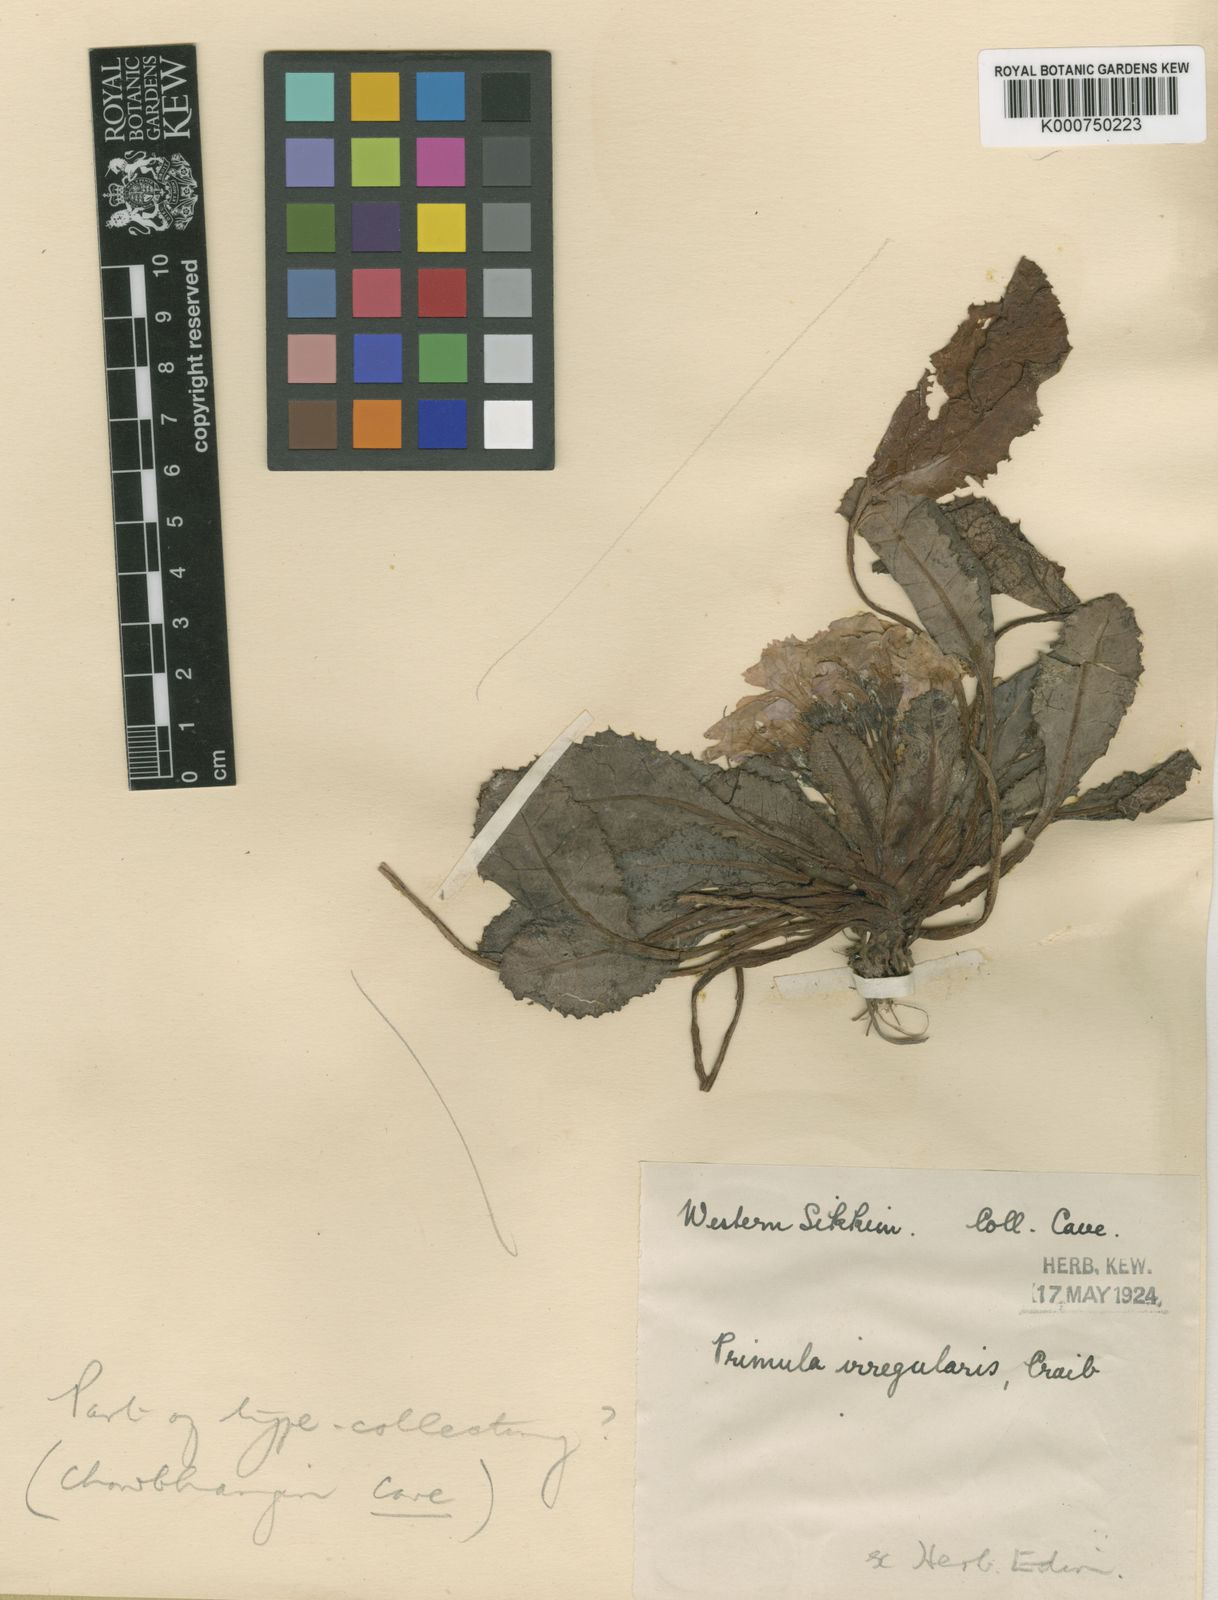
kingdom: Plantae
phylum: Tracheophyta
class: Magnoliopsida
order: Ericales
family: Primulaceae
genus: Primula
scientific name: Primula irregularis
